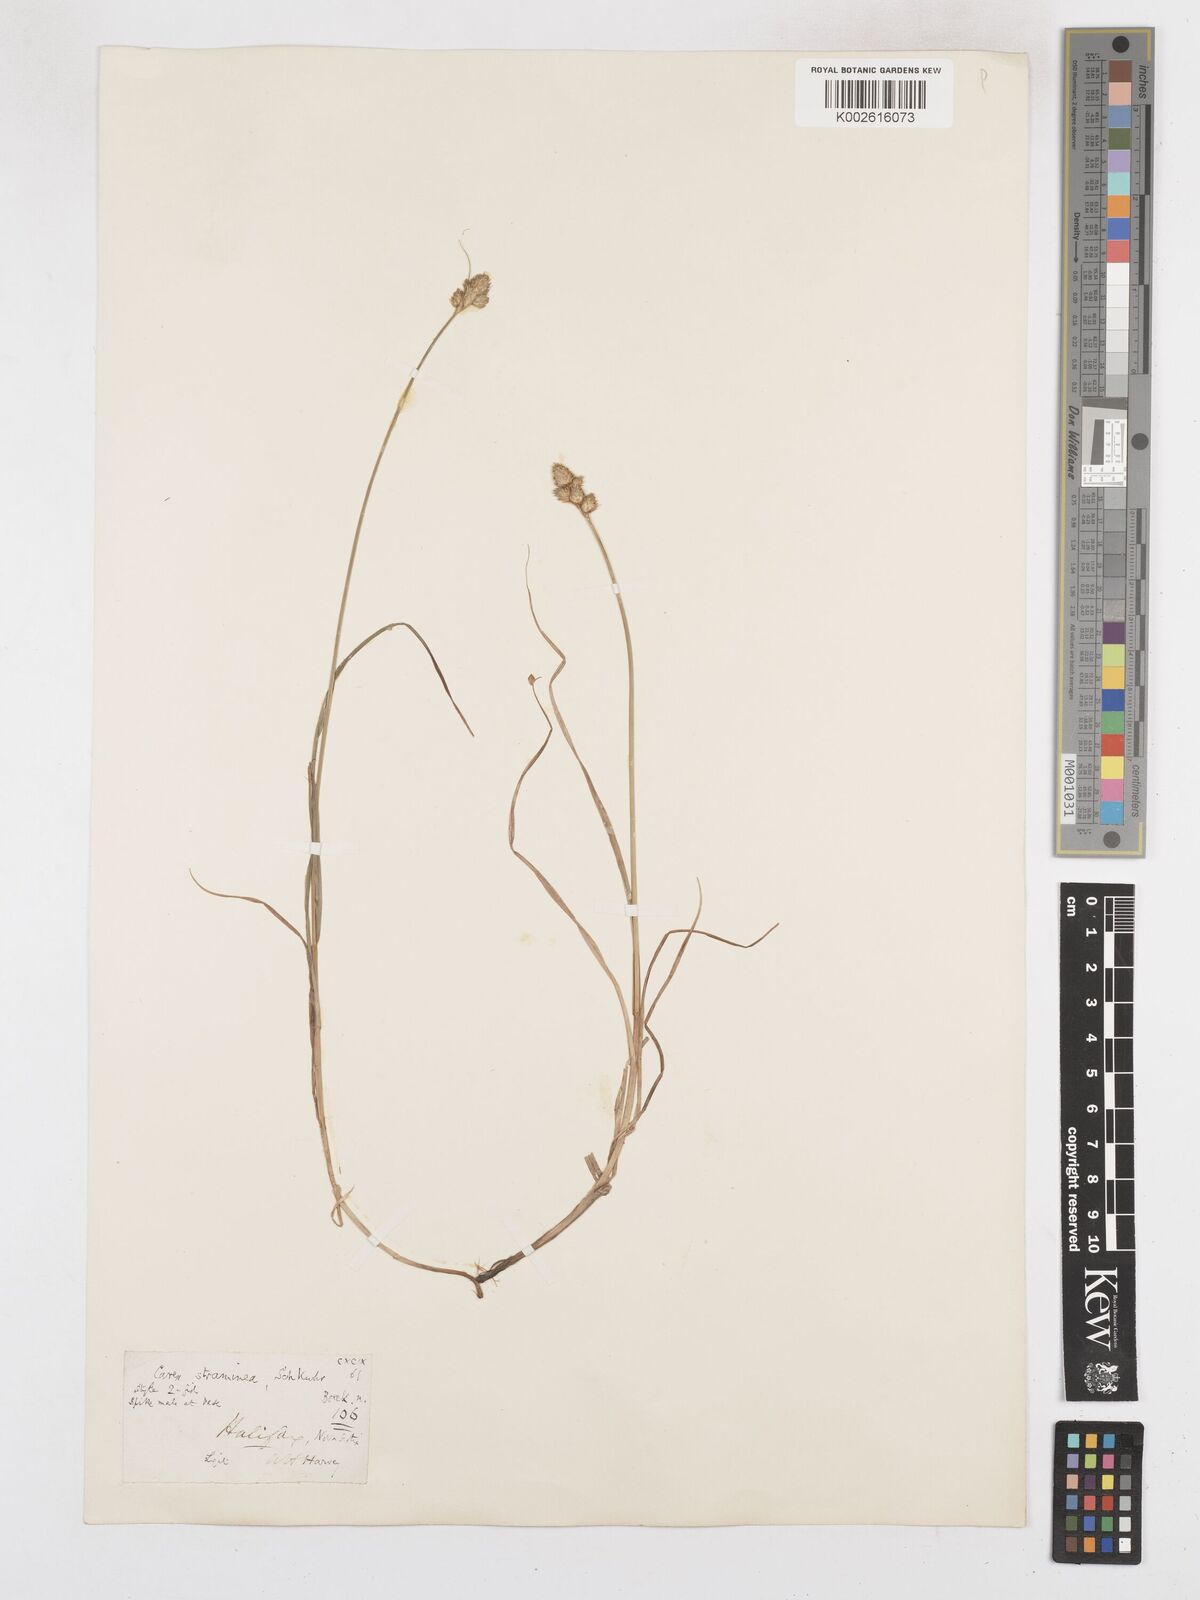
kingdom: Plantae
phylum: Tracheophyta
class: Liliopsida
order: Poales
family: Cyperaceae
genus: Carex
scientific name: Carex brevior
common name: Brevior sedge
